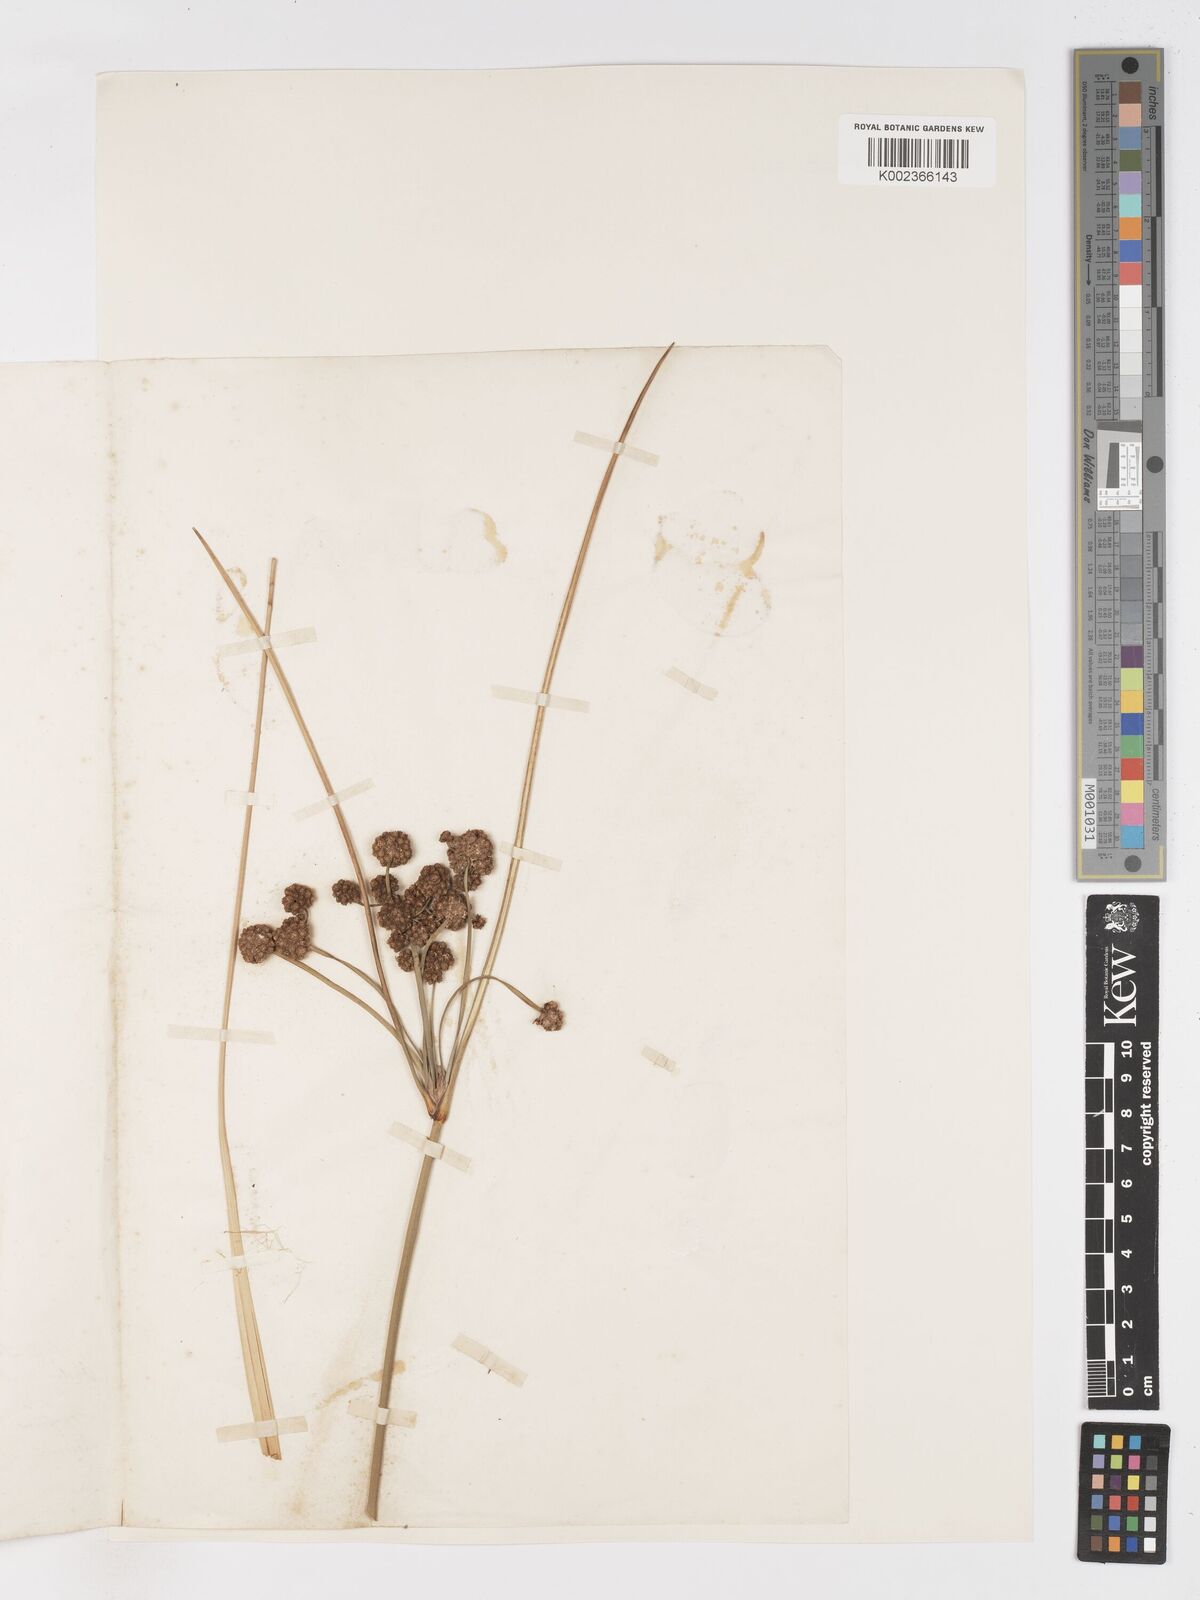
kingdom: Plantae
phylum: Tracheophyta
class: Liliopsida
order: Poales
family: Cyperaceae
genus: Scirpoides
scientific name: Scirpoides holoschoenus
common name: Round-headed club-rush
